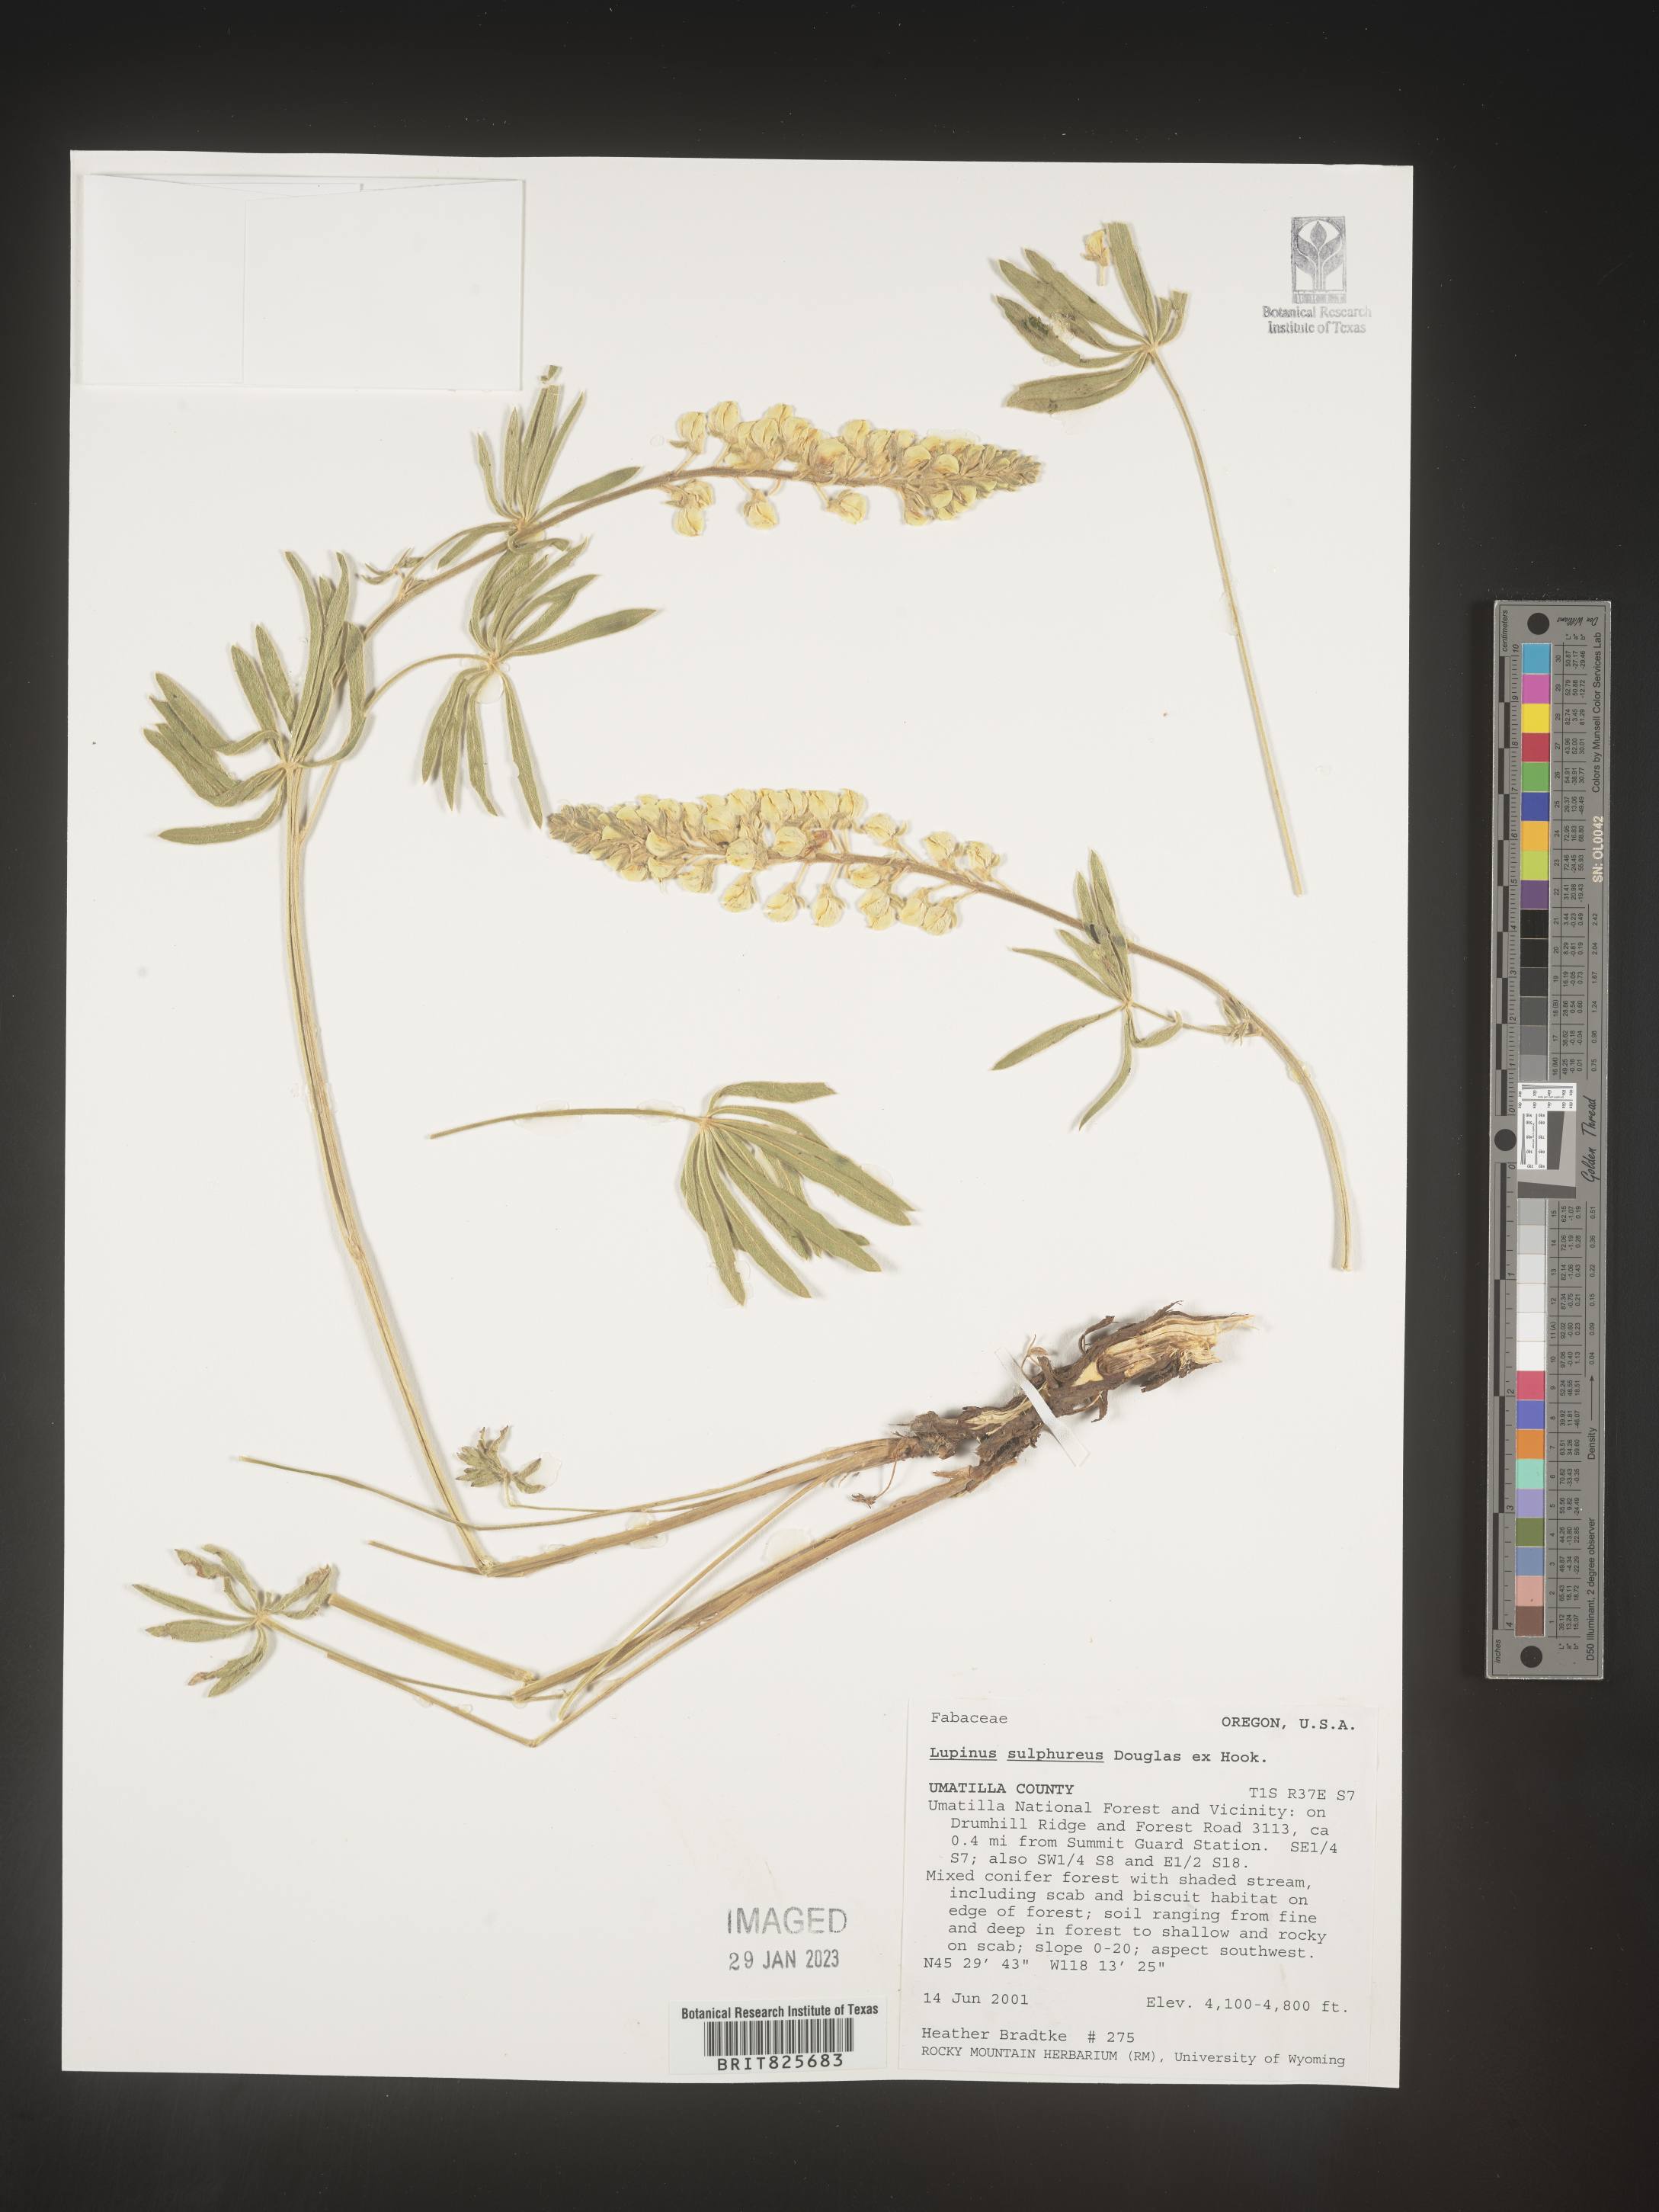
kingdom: Plantae
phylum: Tracheophyta
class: Magnoliopsida
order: Fabales
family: Fabaceae
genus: Lupinus
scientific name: Lupinus
